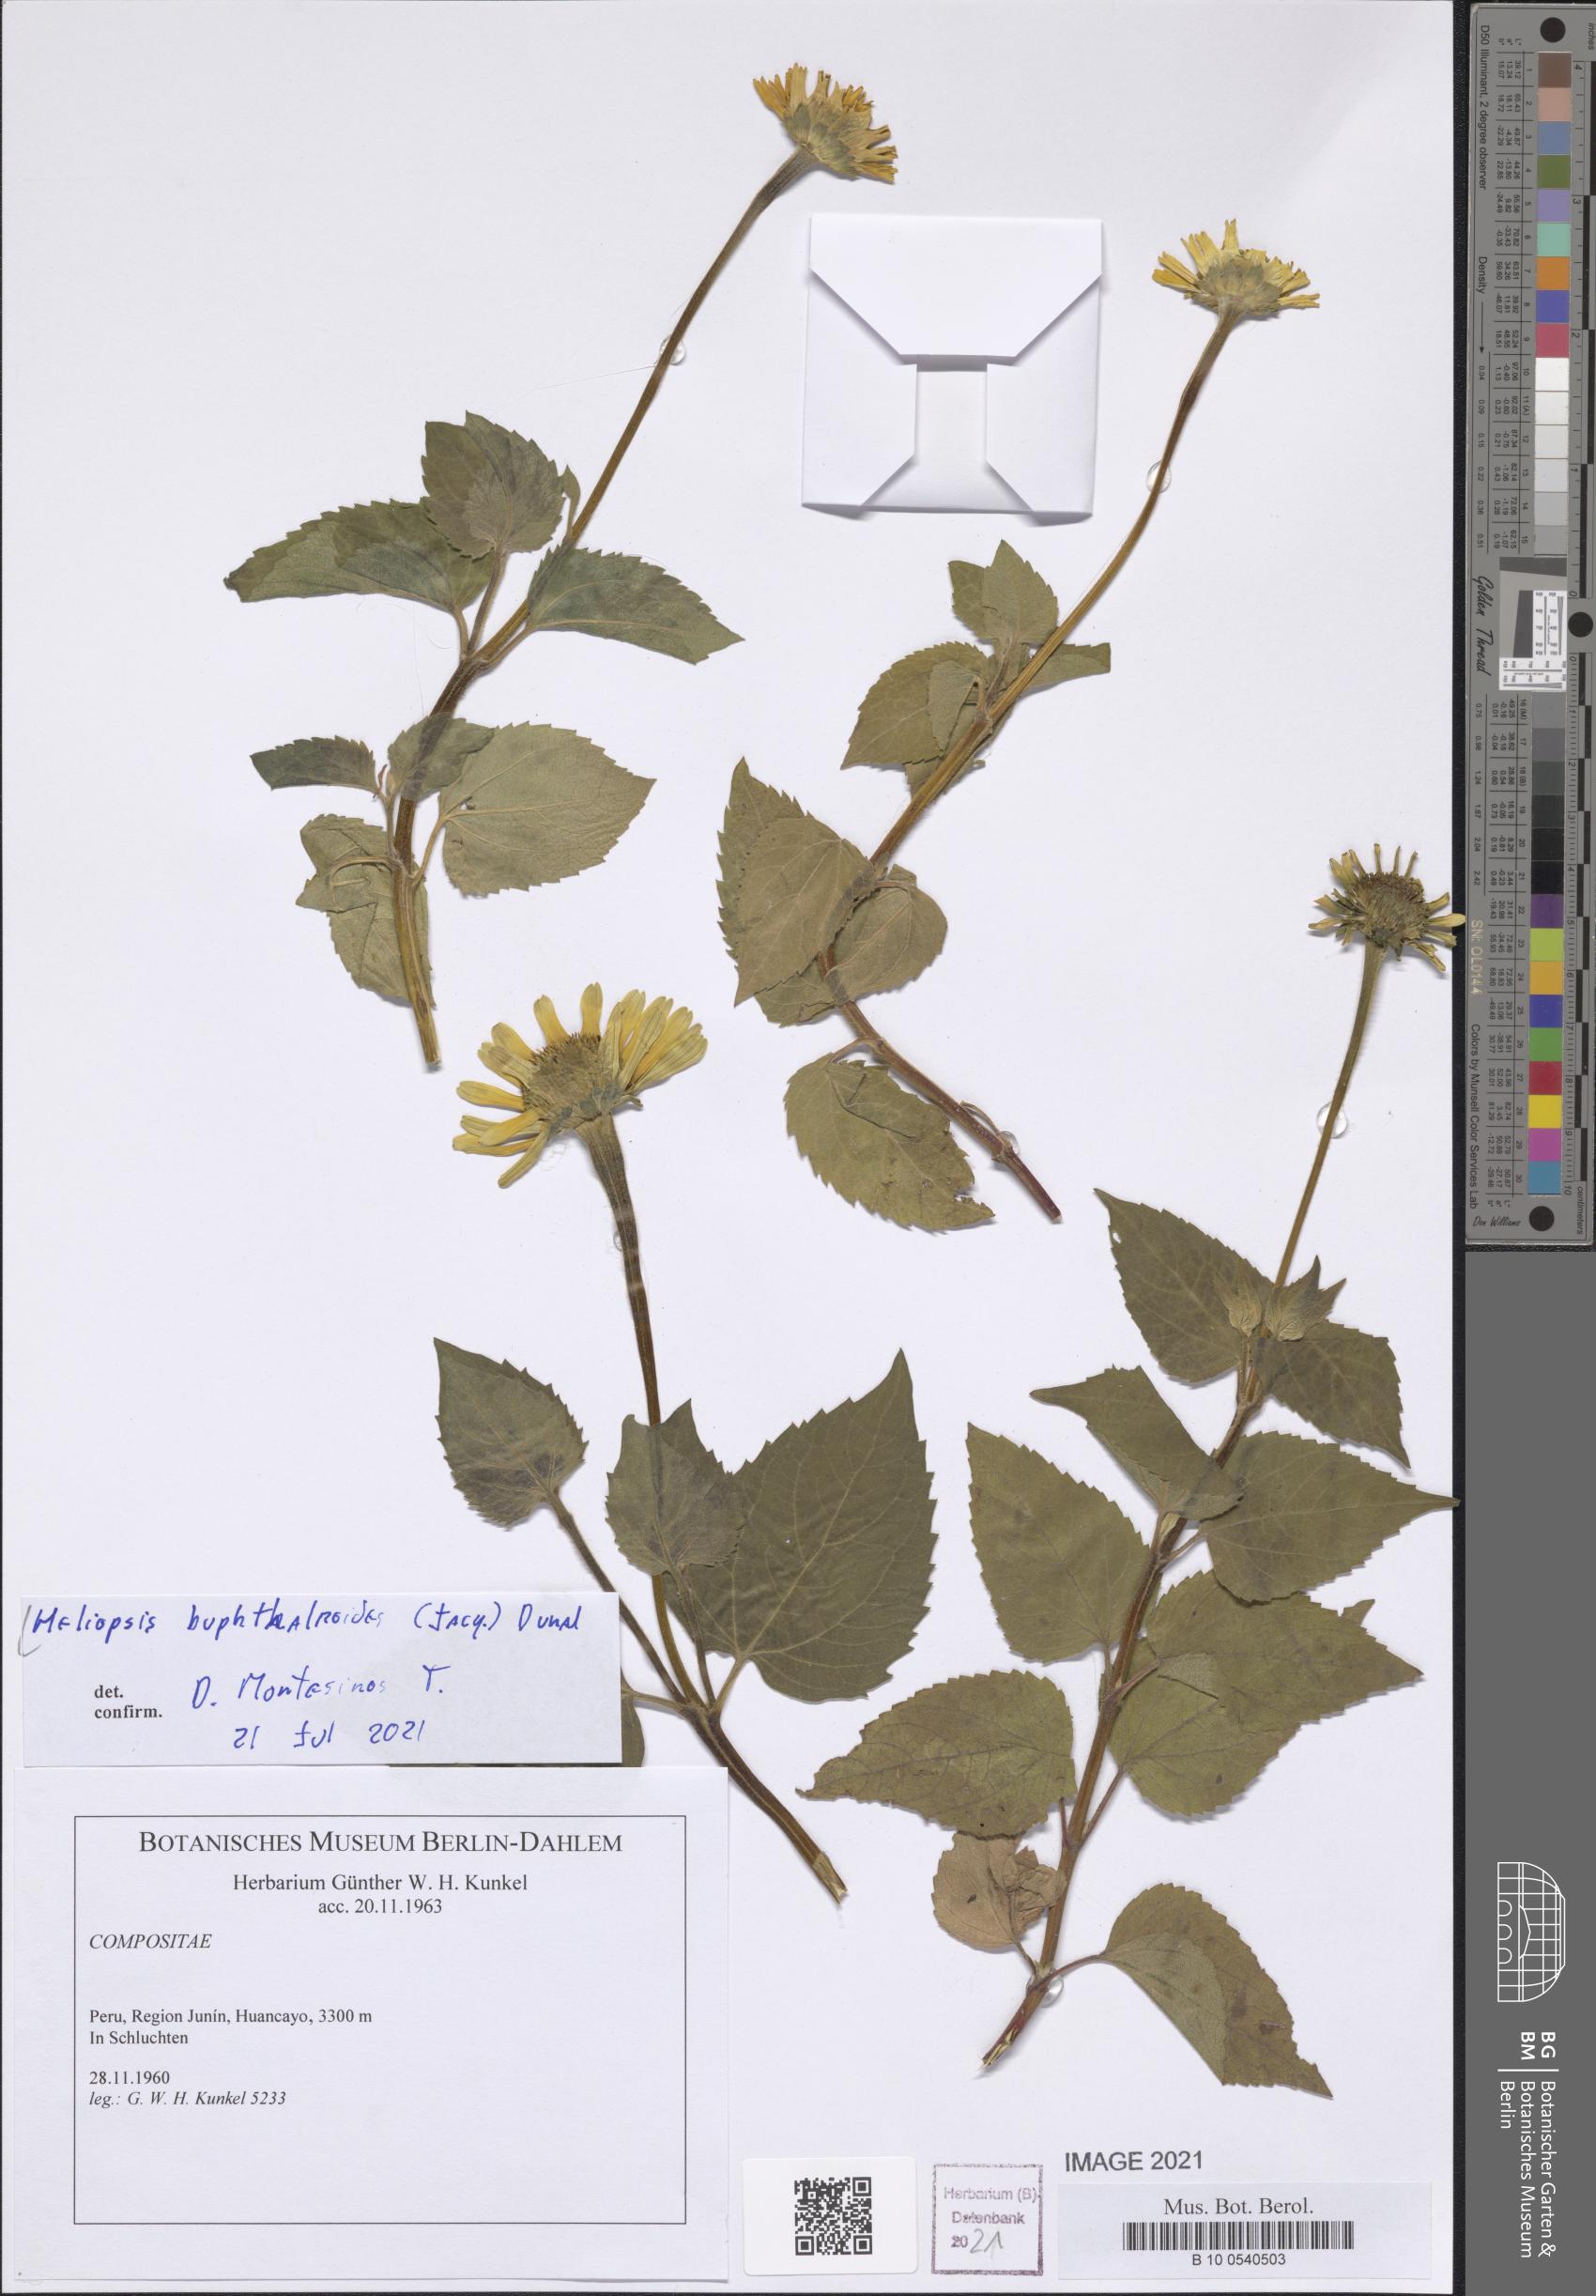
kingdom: Plantae
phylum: Tracheophyta
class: Magnoliopsida
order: Asterales
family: Asteraceae
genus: Heliopsis
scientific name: Heliopsis buphthalmoides
